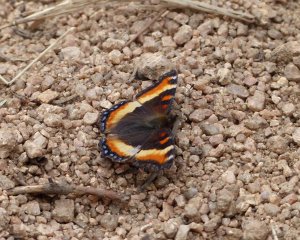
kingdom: Animalia
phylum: Arthropoda
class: Insecta
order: Lepidoptera
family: Nymphalidae
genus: Aglais
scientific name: Aglais milberti
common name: Milbert's Tortoiseshell
